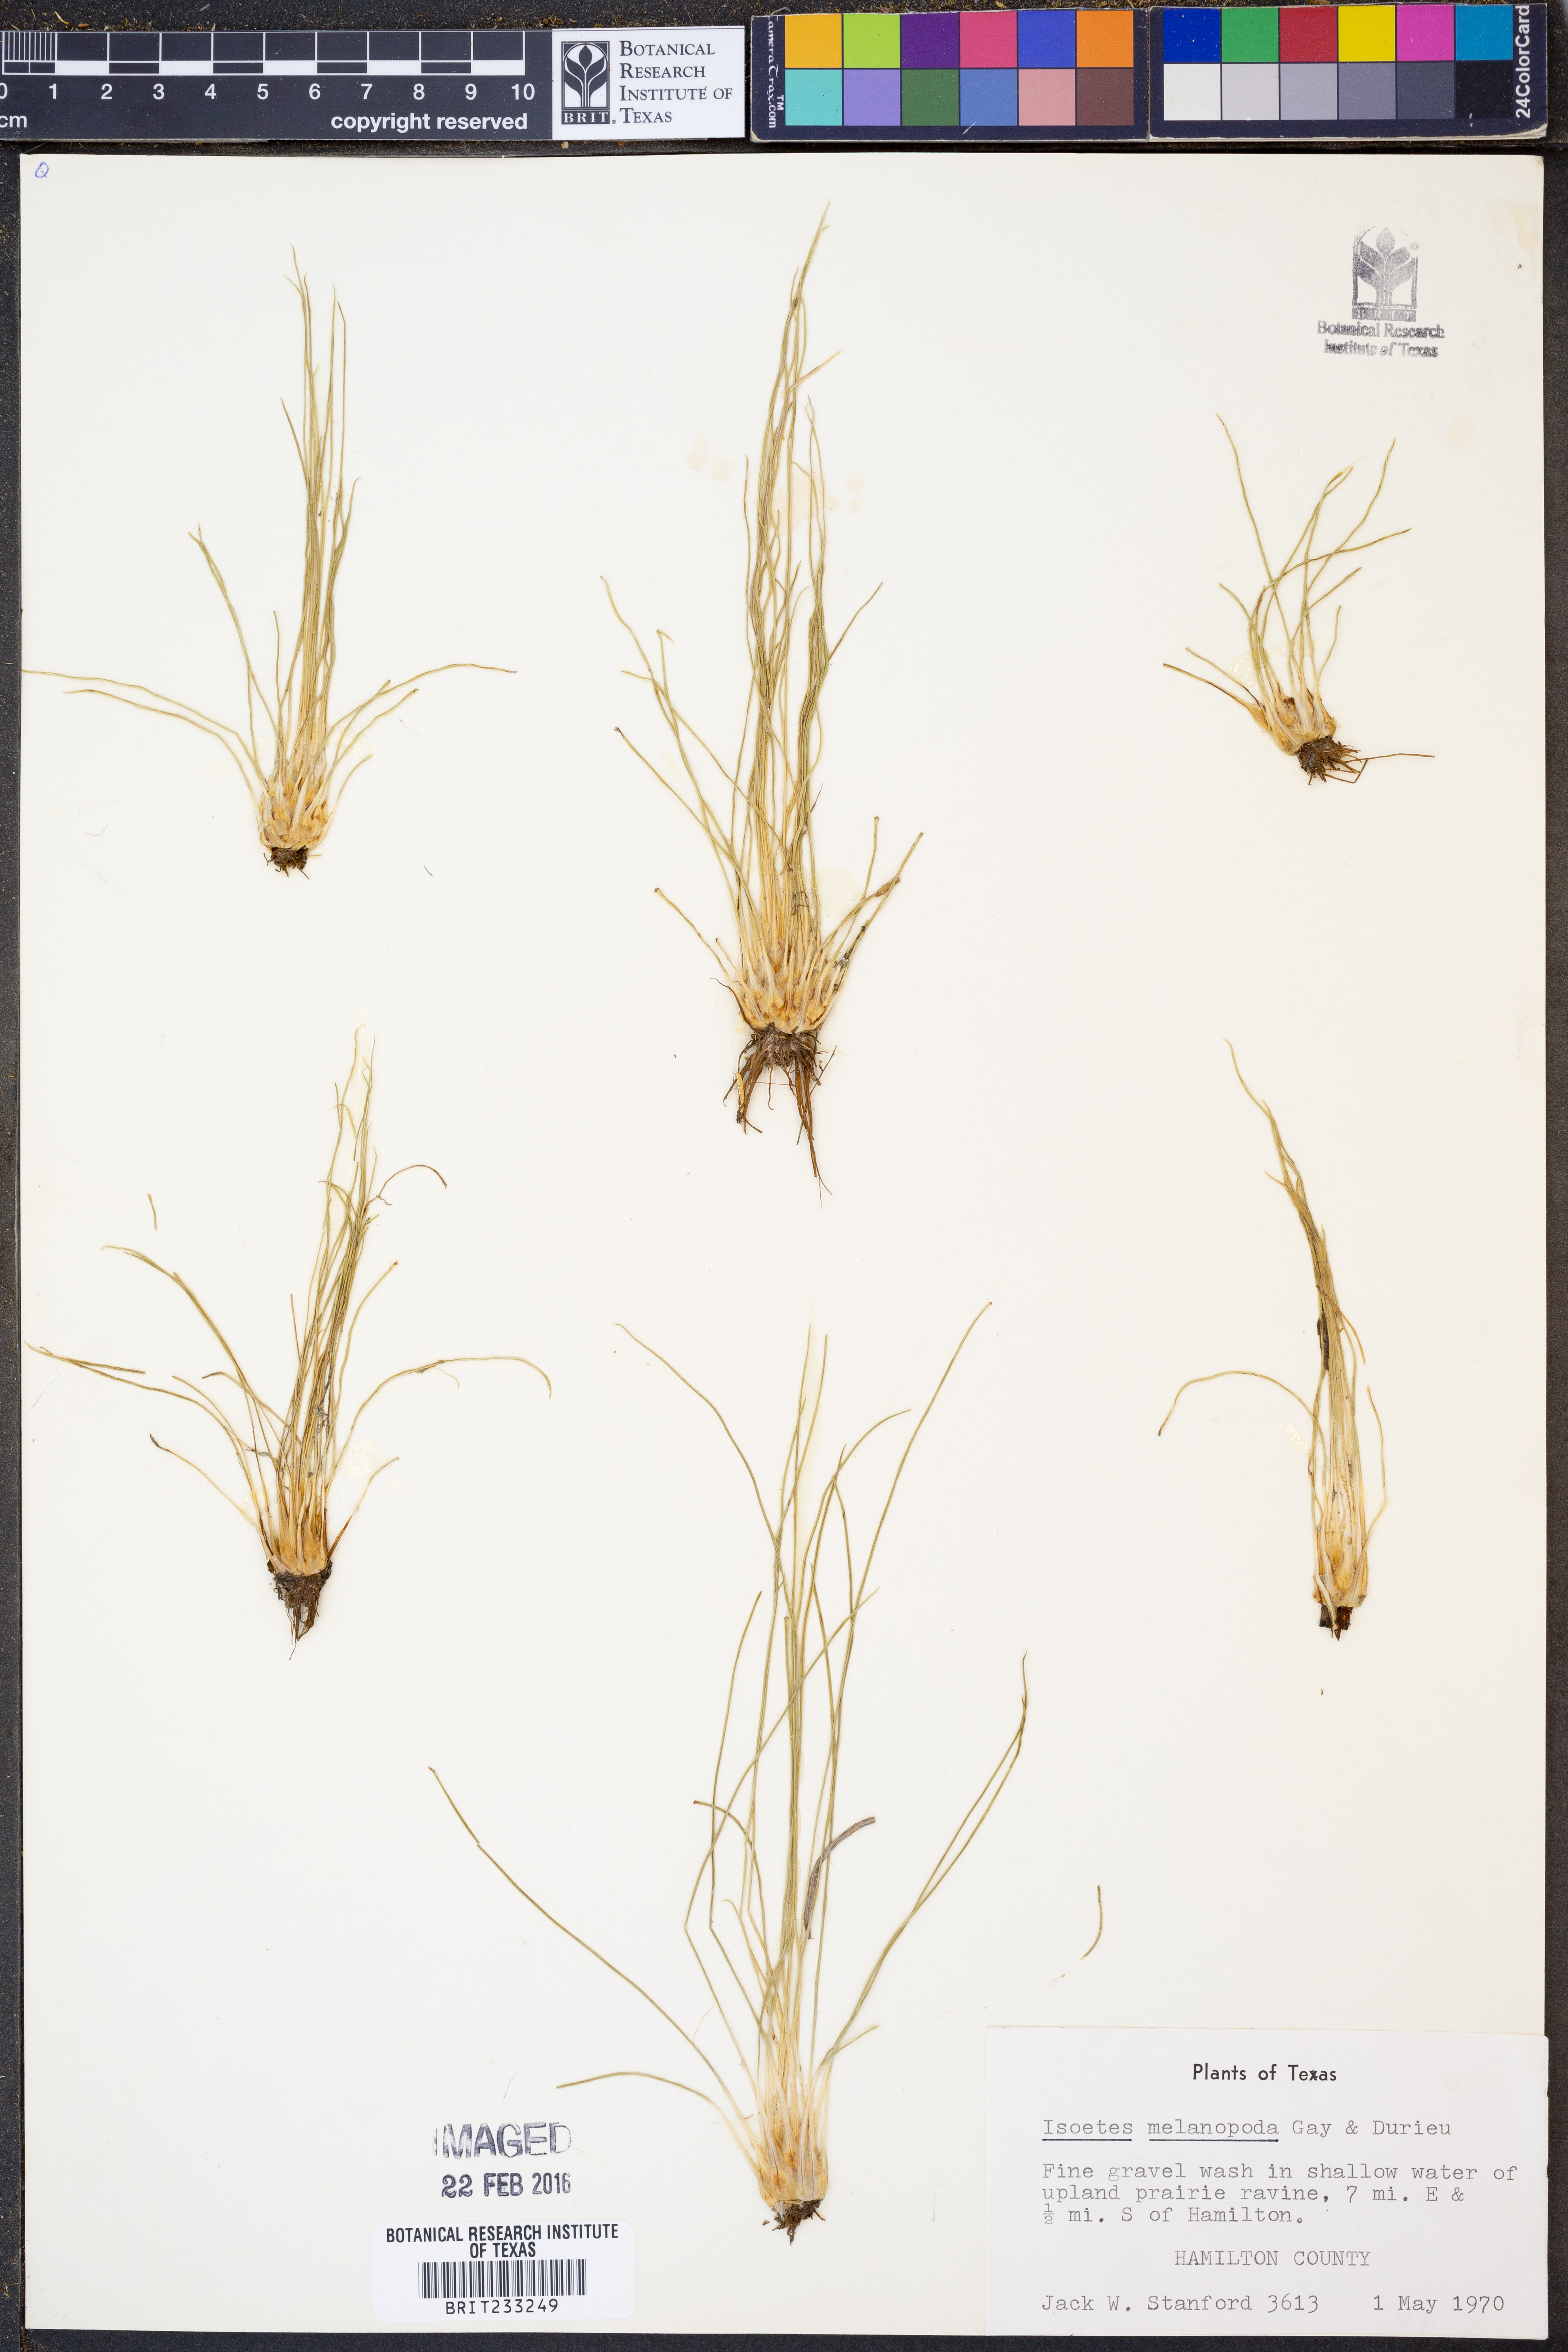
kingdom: Plantae
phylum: Tracheophyta
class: Lycopodiopsida
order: Isoetales
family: Isoetaceae
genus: Isoetes
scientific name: Isoetes melanopoda
